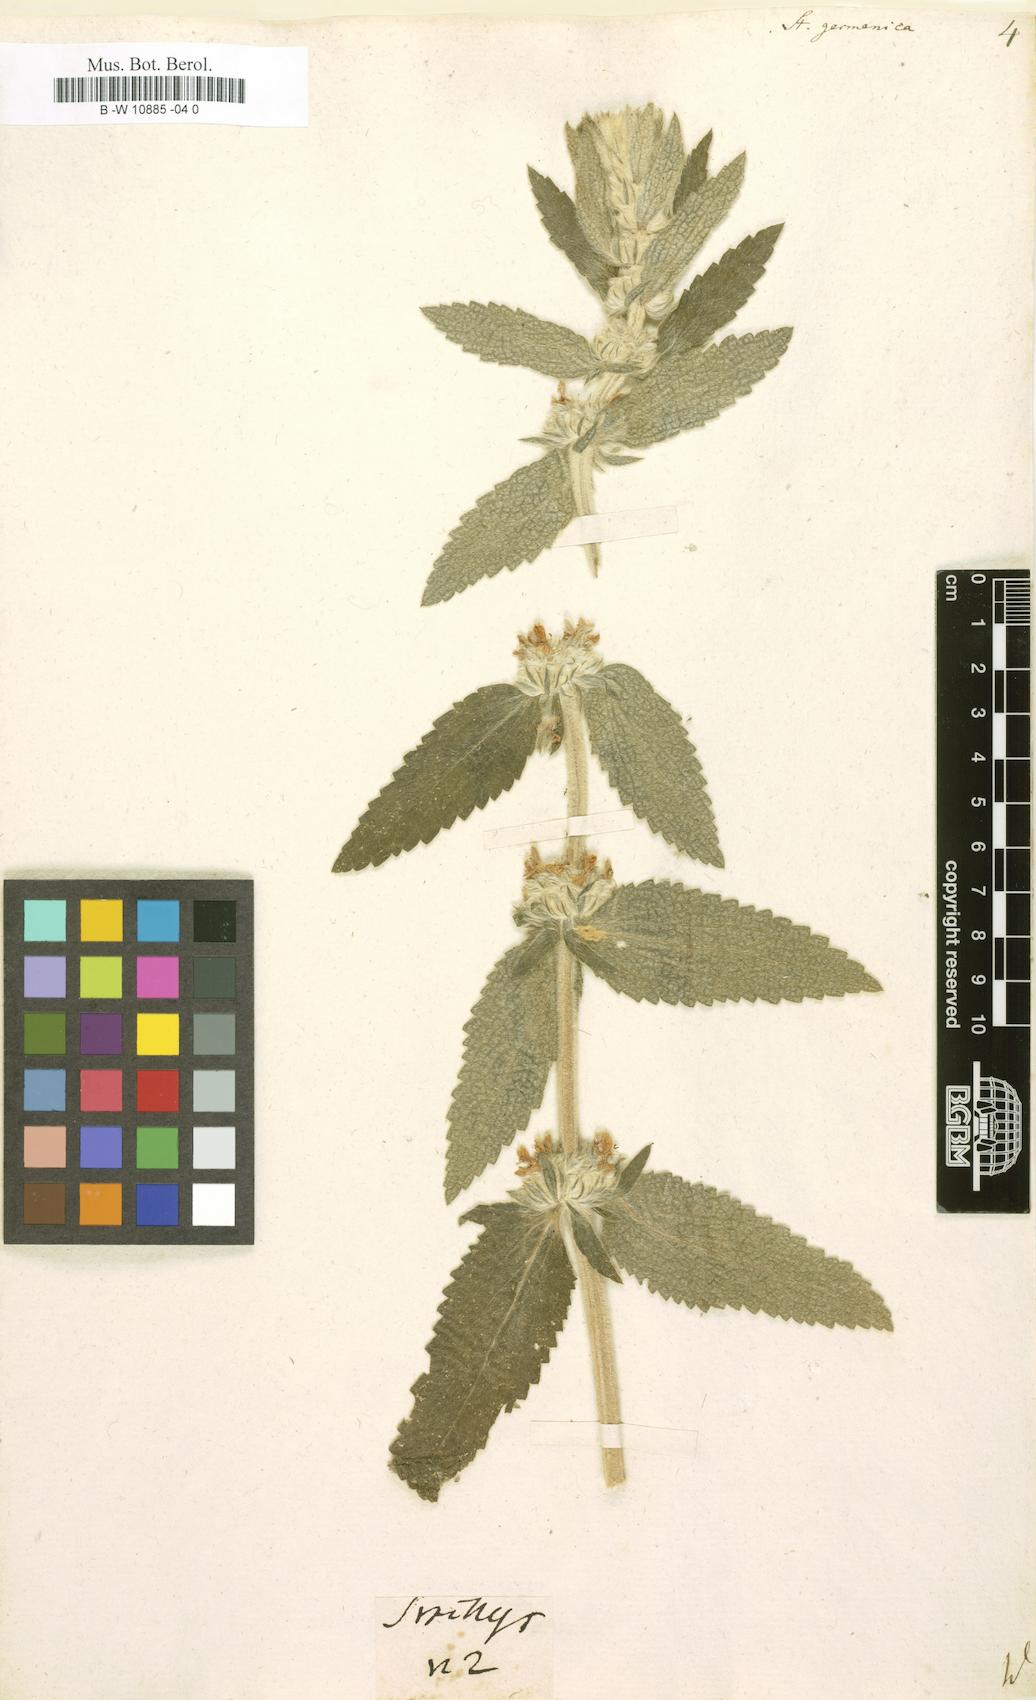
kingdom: Plantae
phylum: Tracheophyta
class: Magnoliopsida
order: Lamiales
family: Lamiaceae
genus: Stachys
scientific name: Stachys germanica
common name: Downy woundwort
